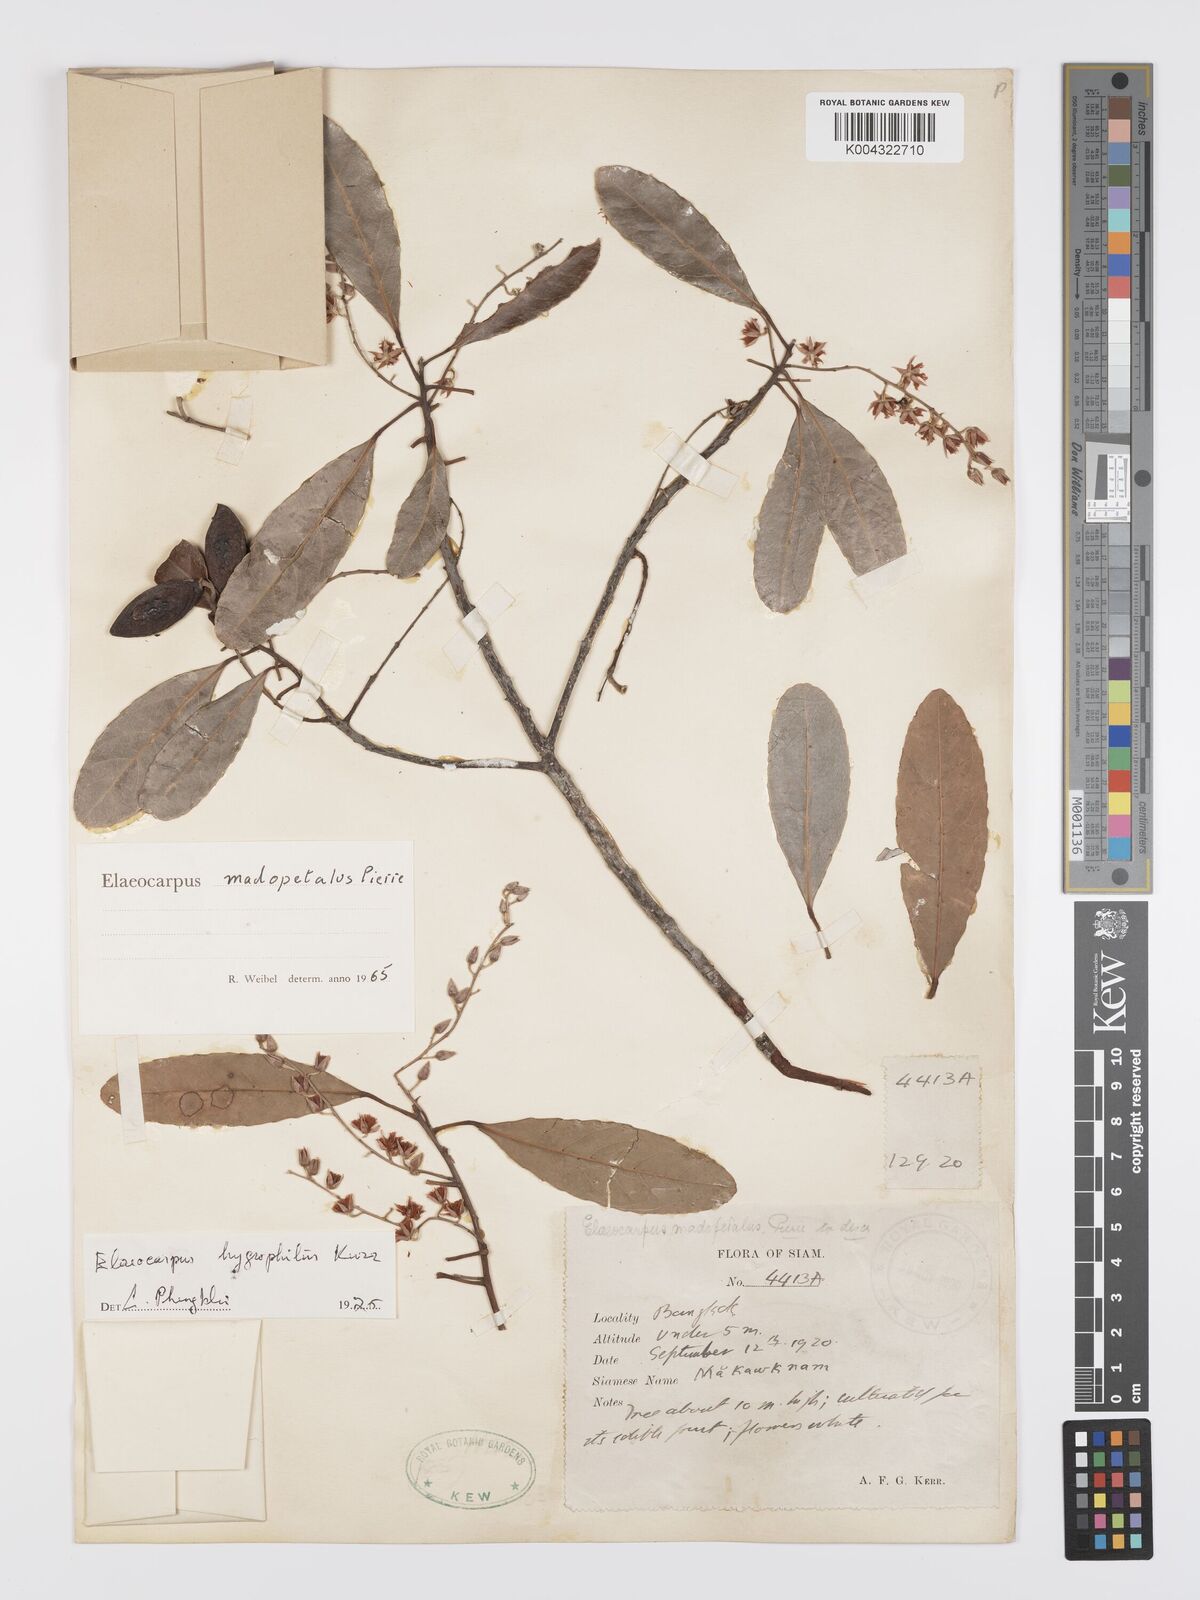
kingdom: Plantae
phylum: Tracheophyta
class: Magnoliopsida
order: Oxalidales
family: Elaeocarpaceae
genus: Elaeocarpus
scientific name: Elaeocarpus hygrophilus
